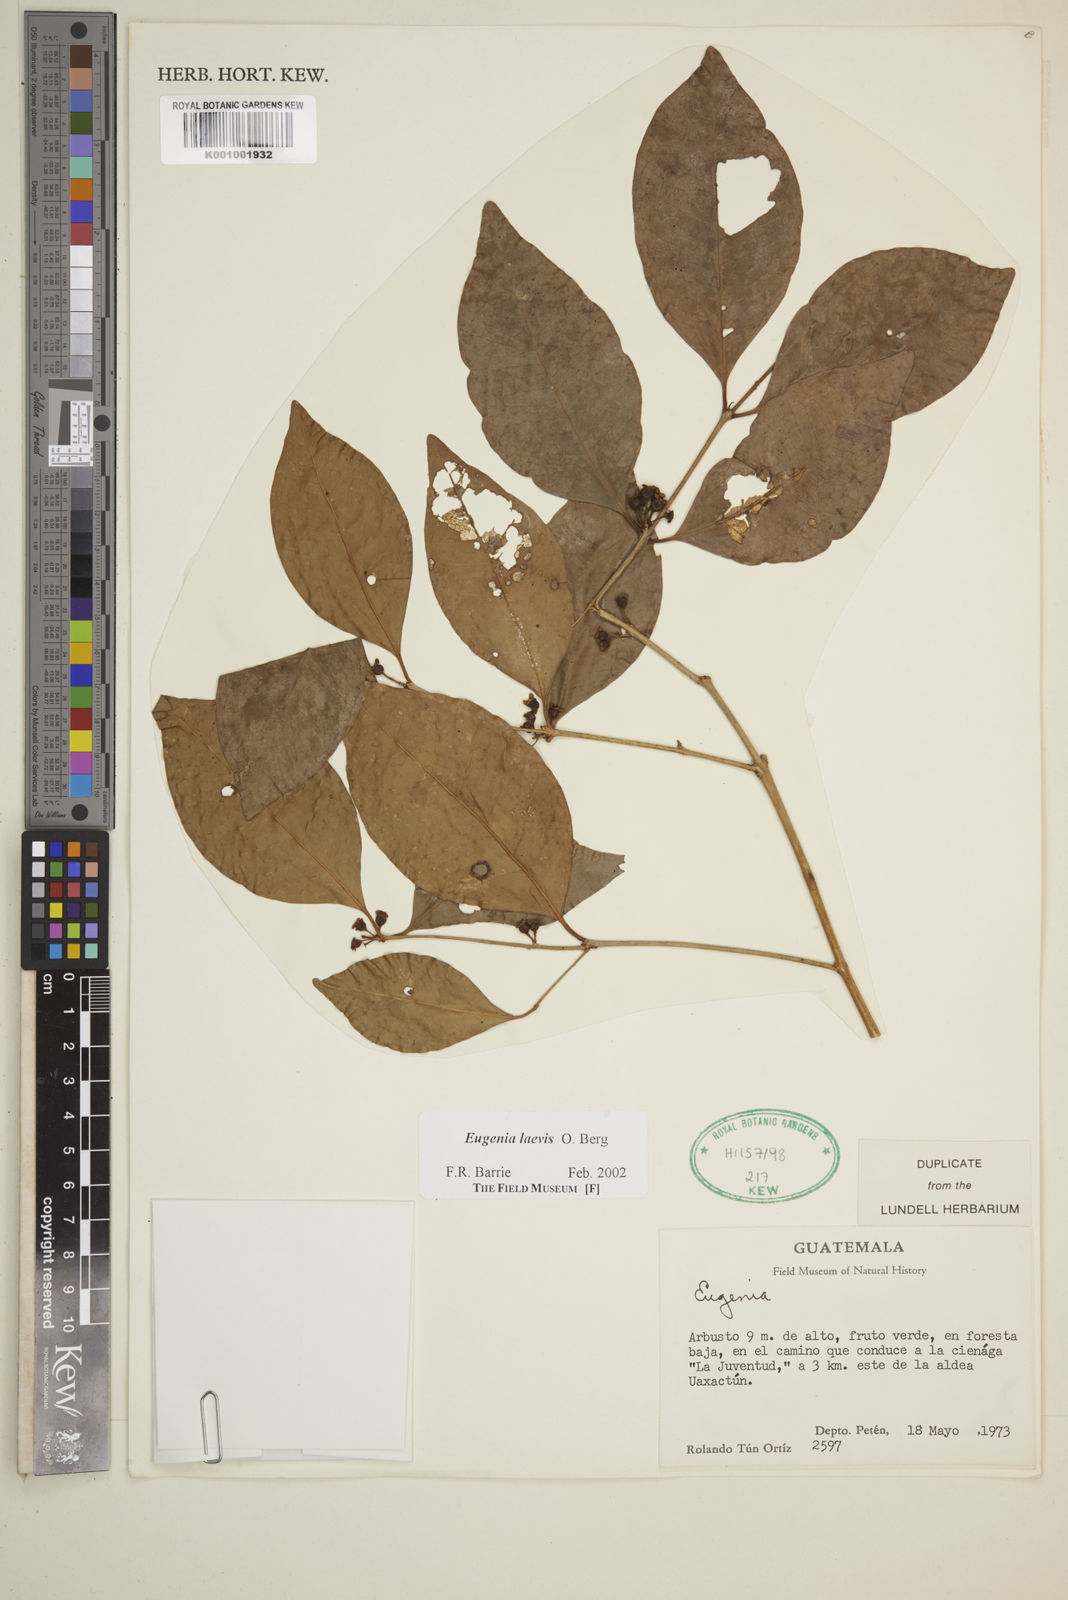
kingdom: Plantae
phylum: Tracheophyta
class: Magnoliopsida
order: Myrtales
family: Myrtaceae
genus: Eugenia
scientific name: Eugenia laevis
